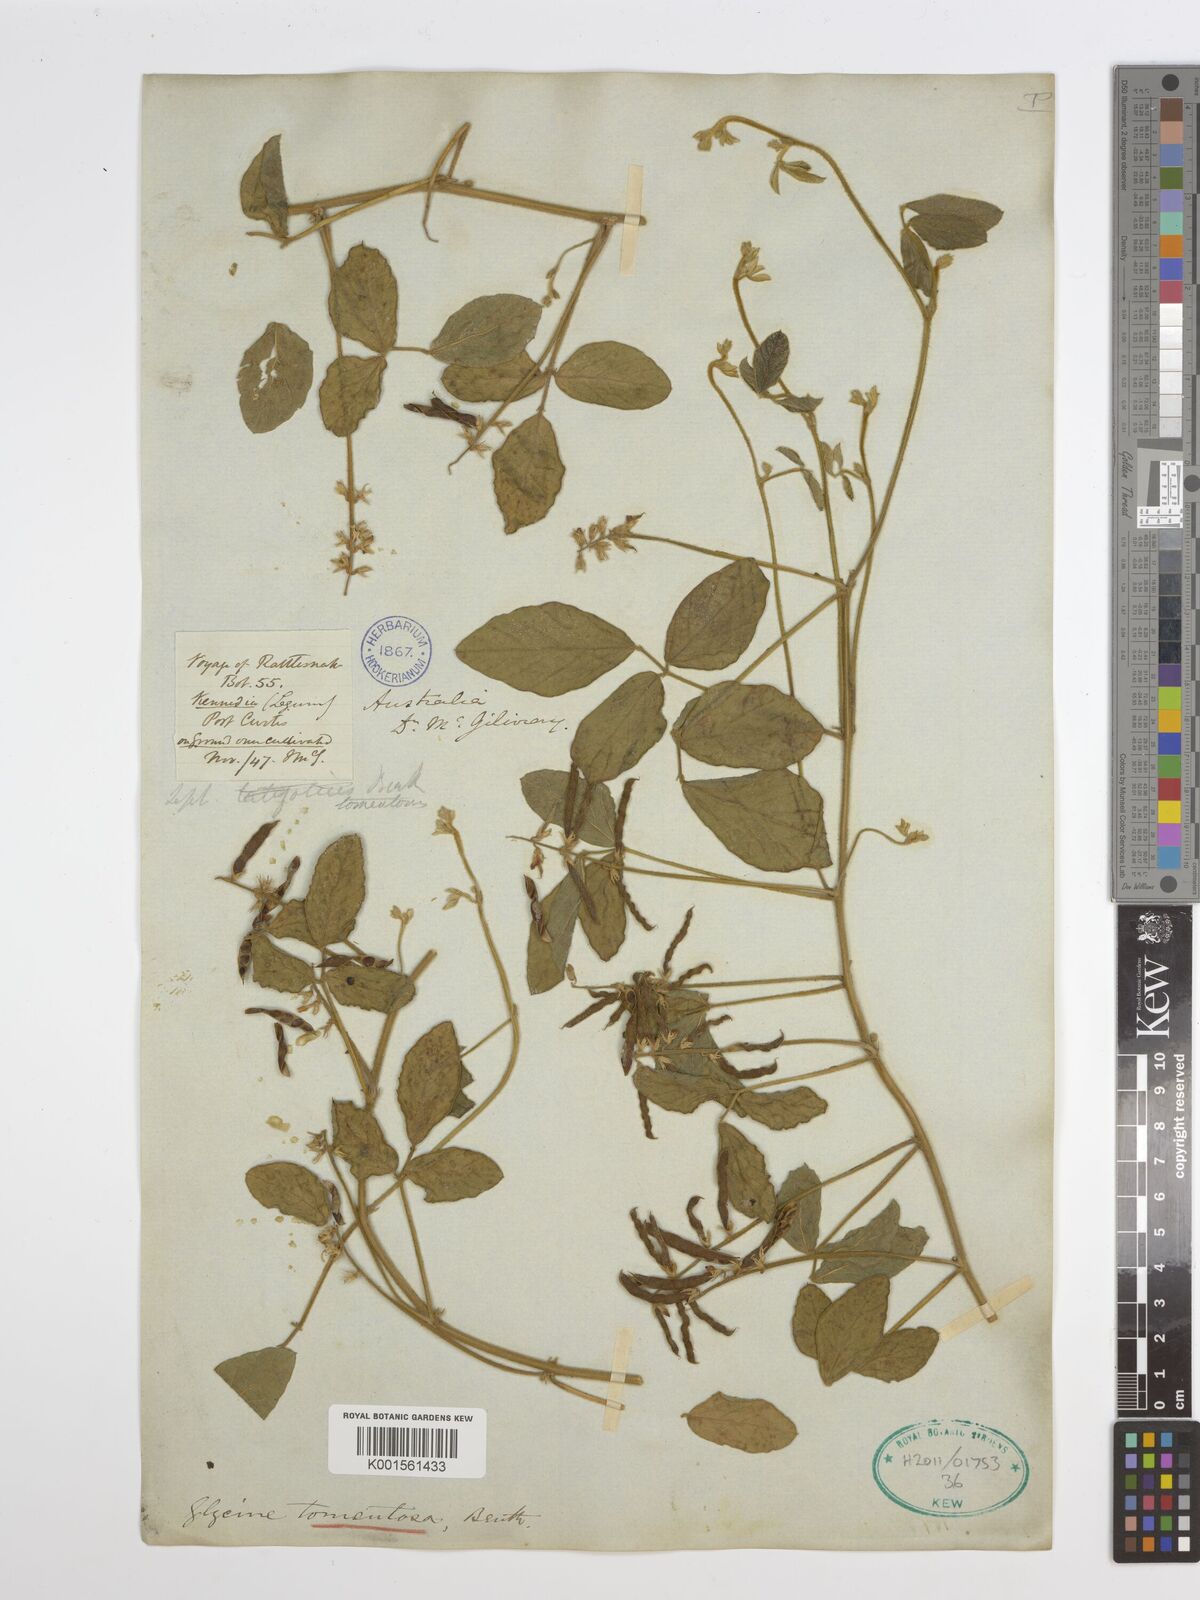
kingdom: Plantae
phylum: Tracheophyta
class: Magnoliopsida
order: Fabales
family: Fabaceae
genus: Glycine
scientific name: Glycine tomentella
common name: Hairy glycine
